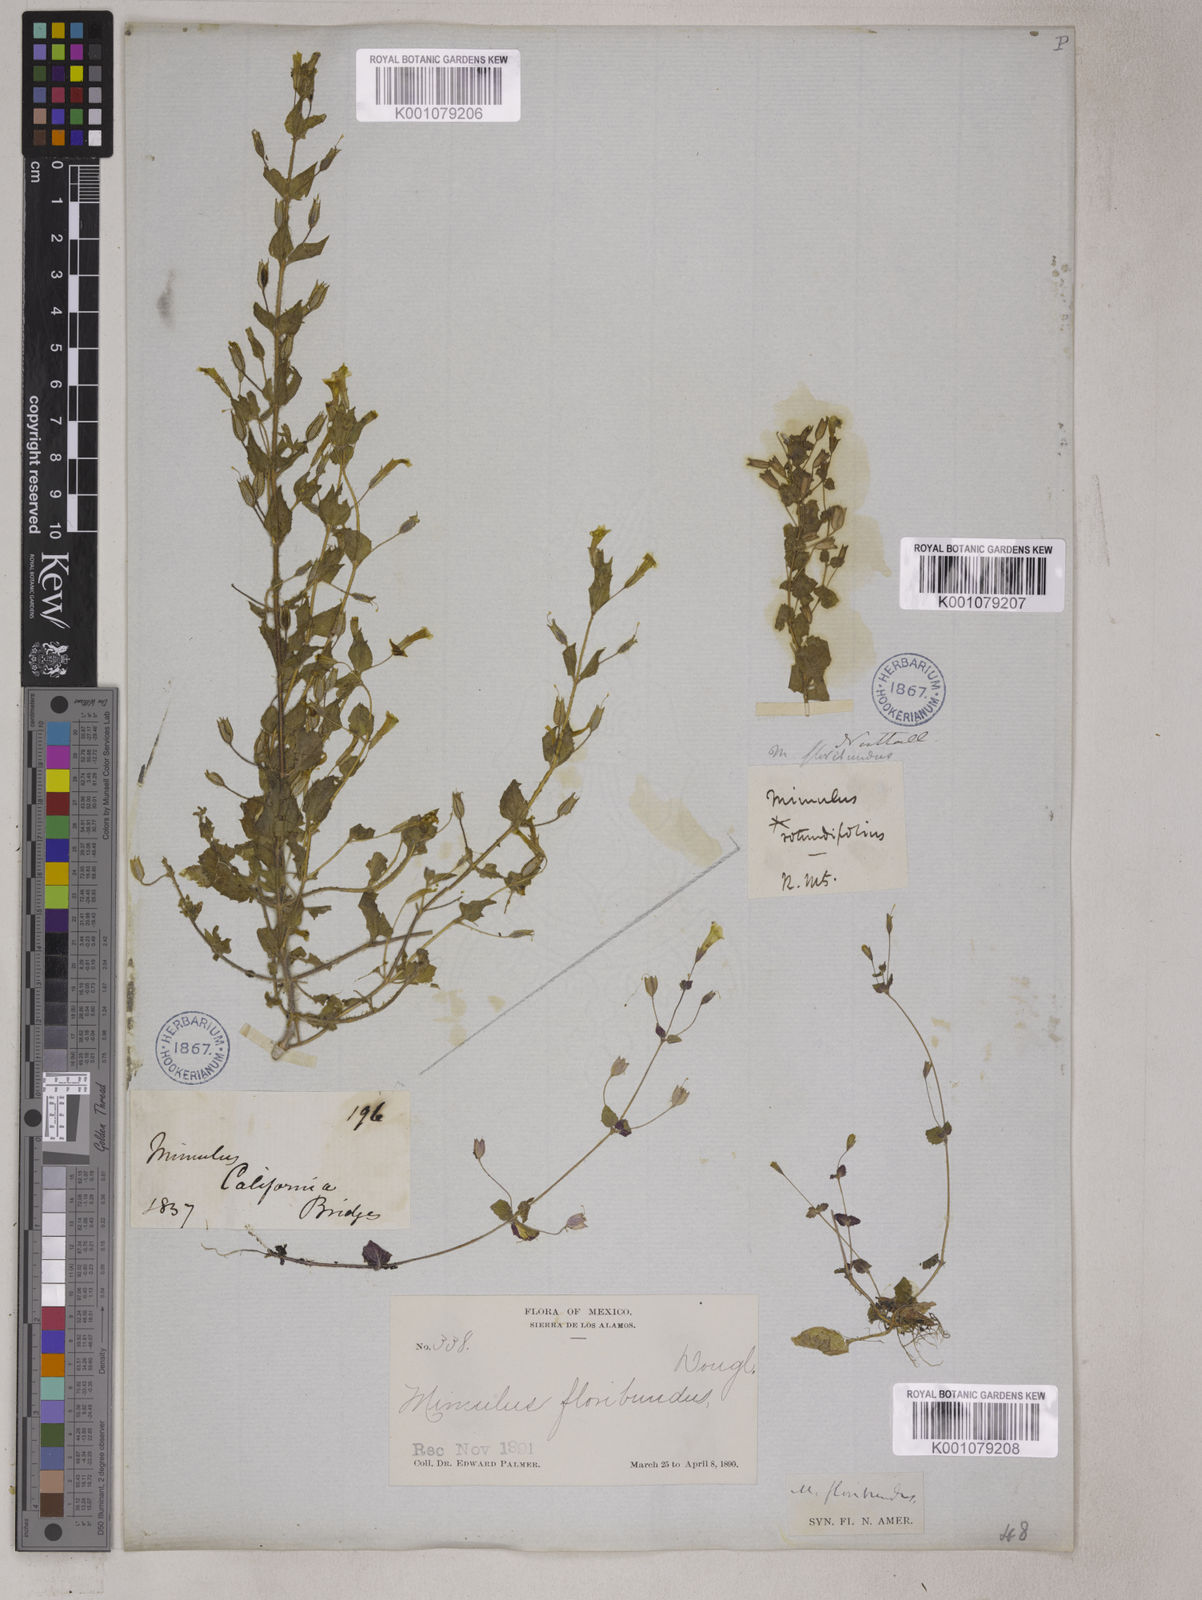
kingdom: Plantae
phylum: Tracheophyta
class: Magnoliopsida
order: Lamiales
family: Phrymaceae
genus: Erythranthe
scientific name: Erythranthe floribunda
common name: Floriferous monkeyflower
